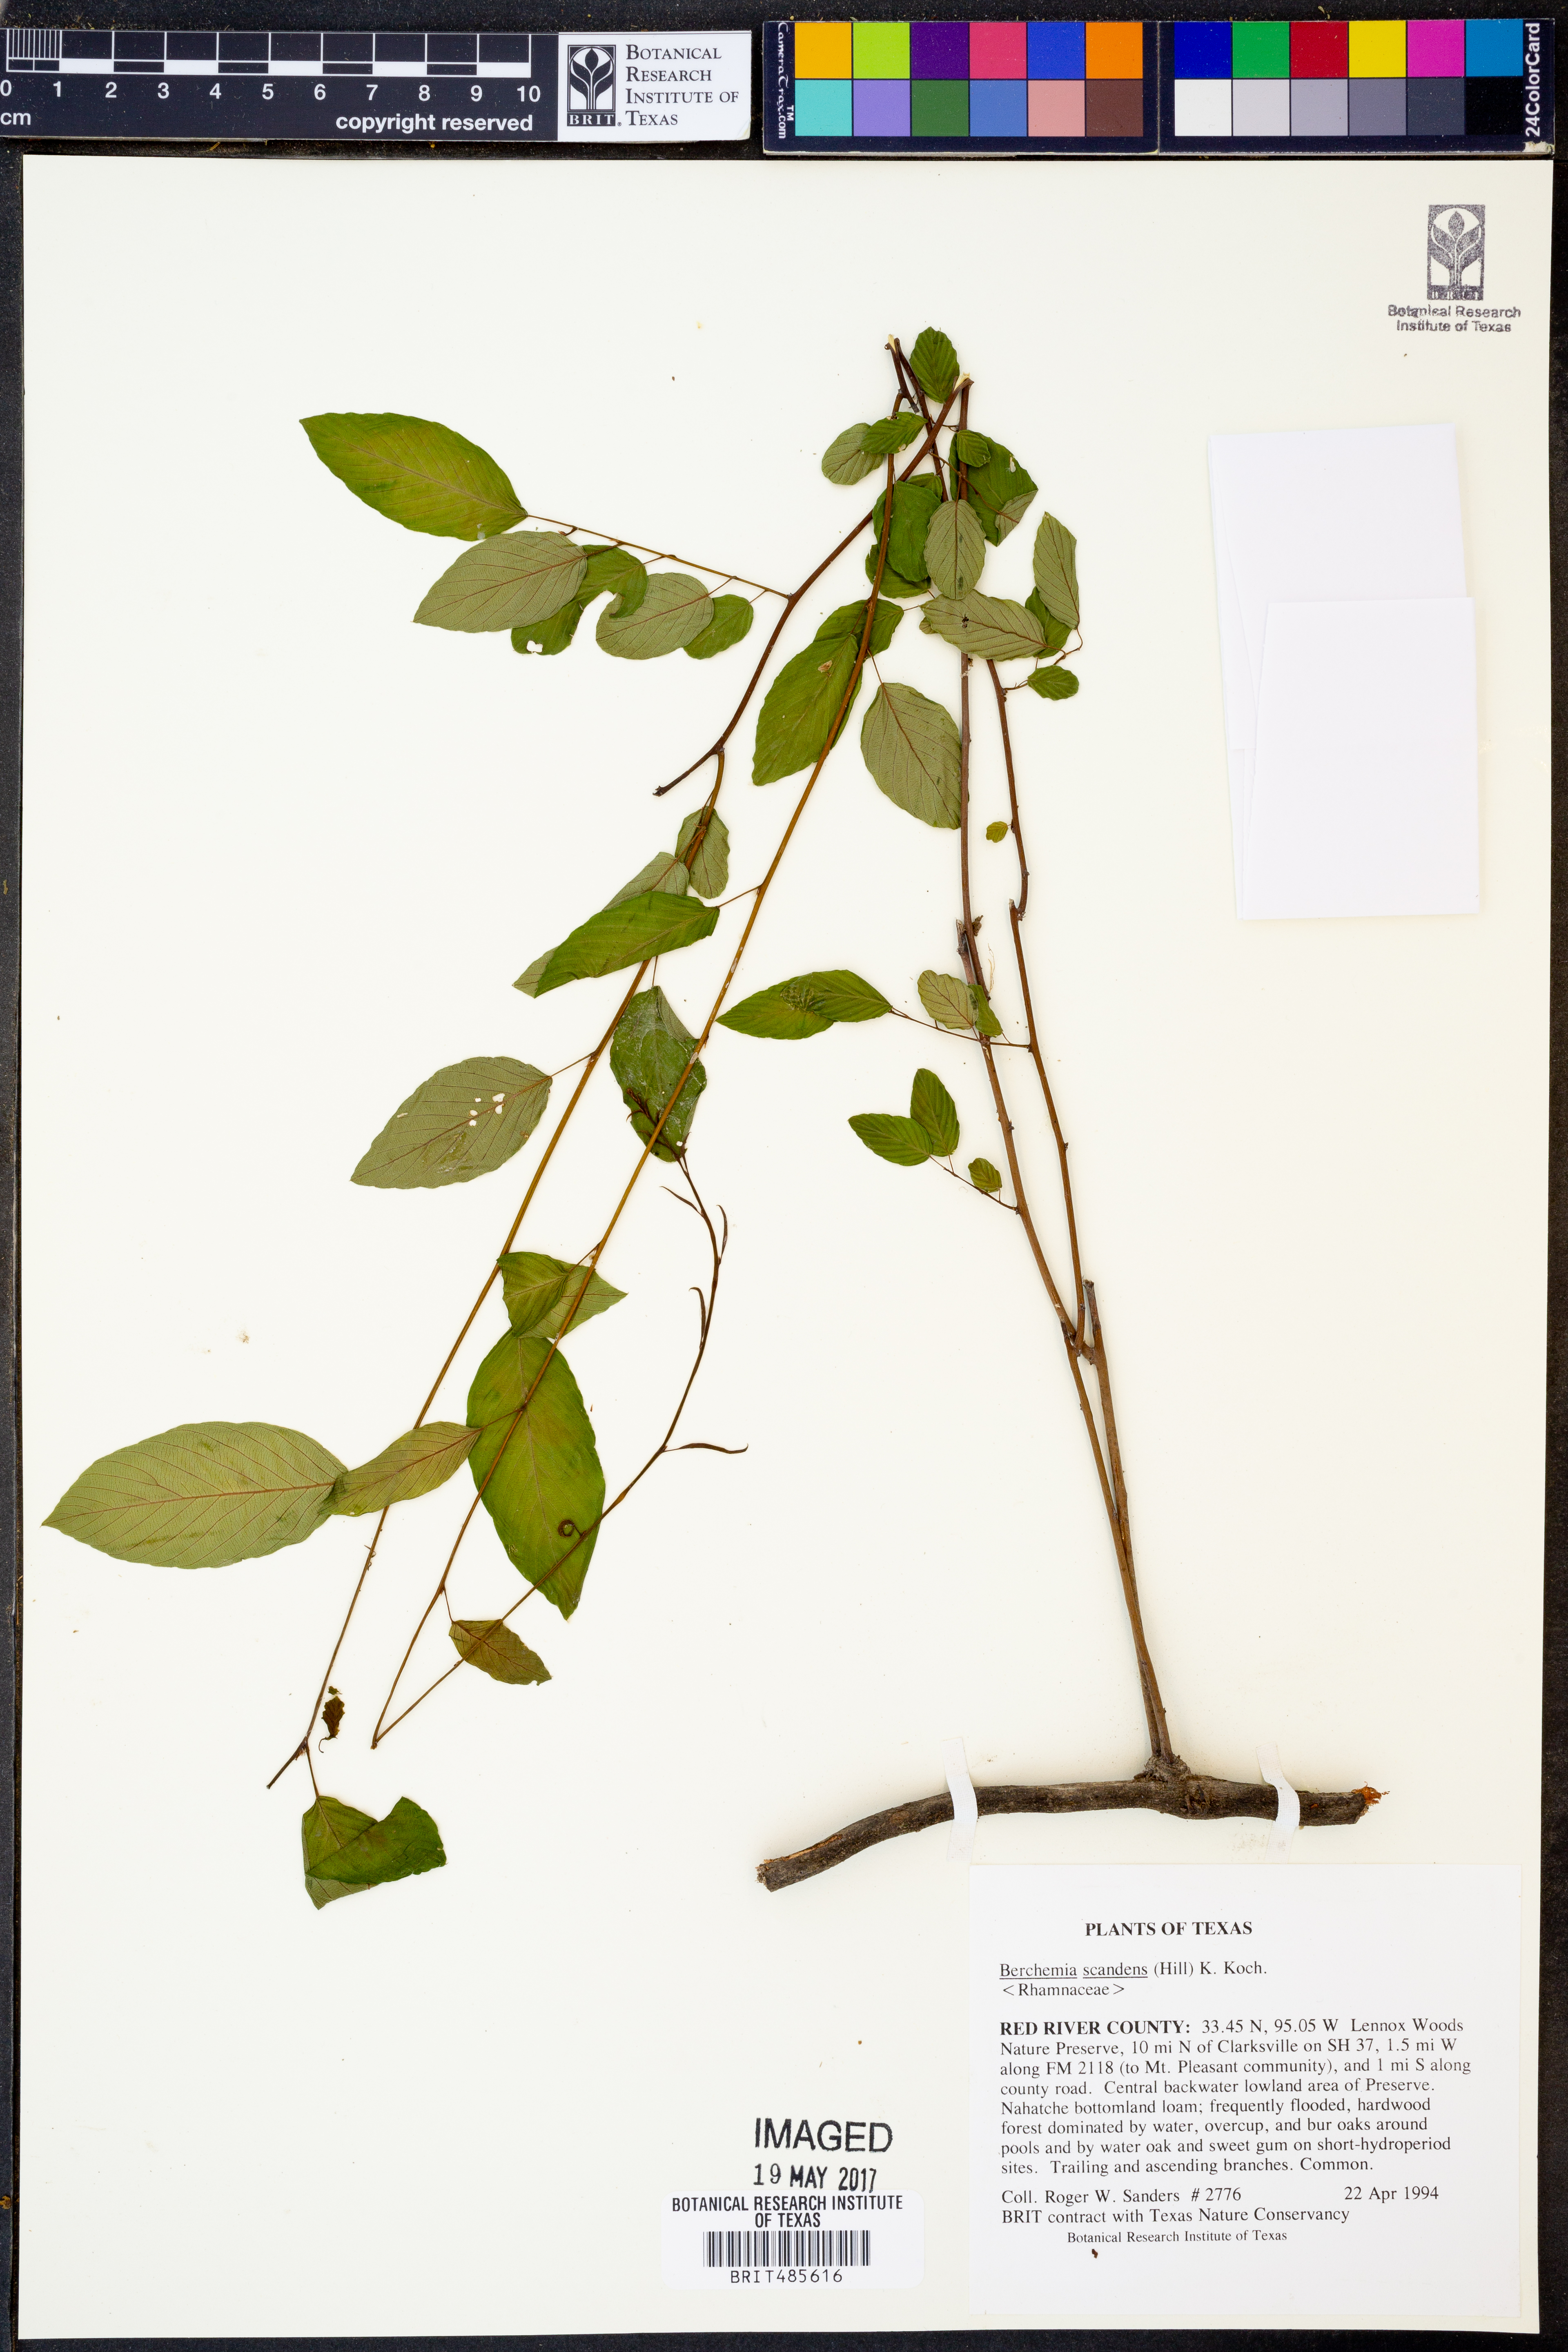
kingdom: Plantae
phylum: Tracheophyta
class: Magnoliopsida
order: Rosales
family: Rhamnaceae
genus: Berchemia
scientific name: Berchemia scandens
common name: Supplejack
